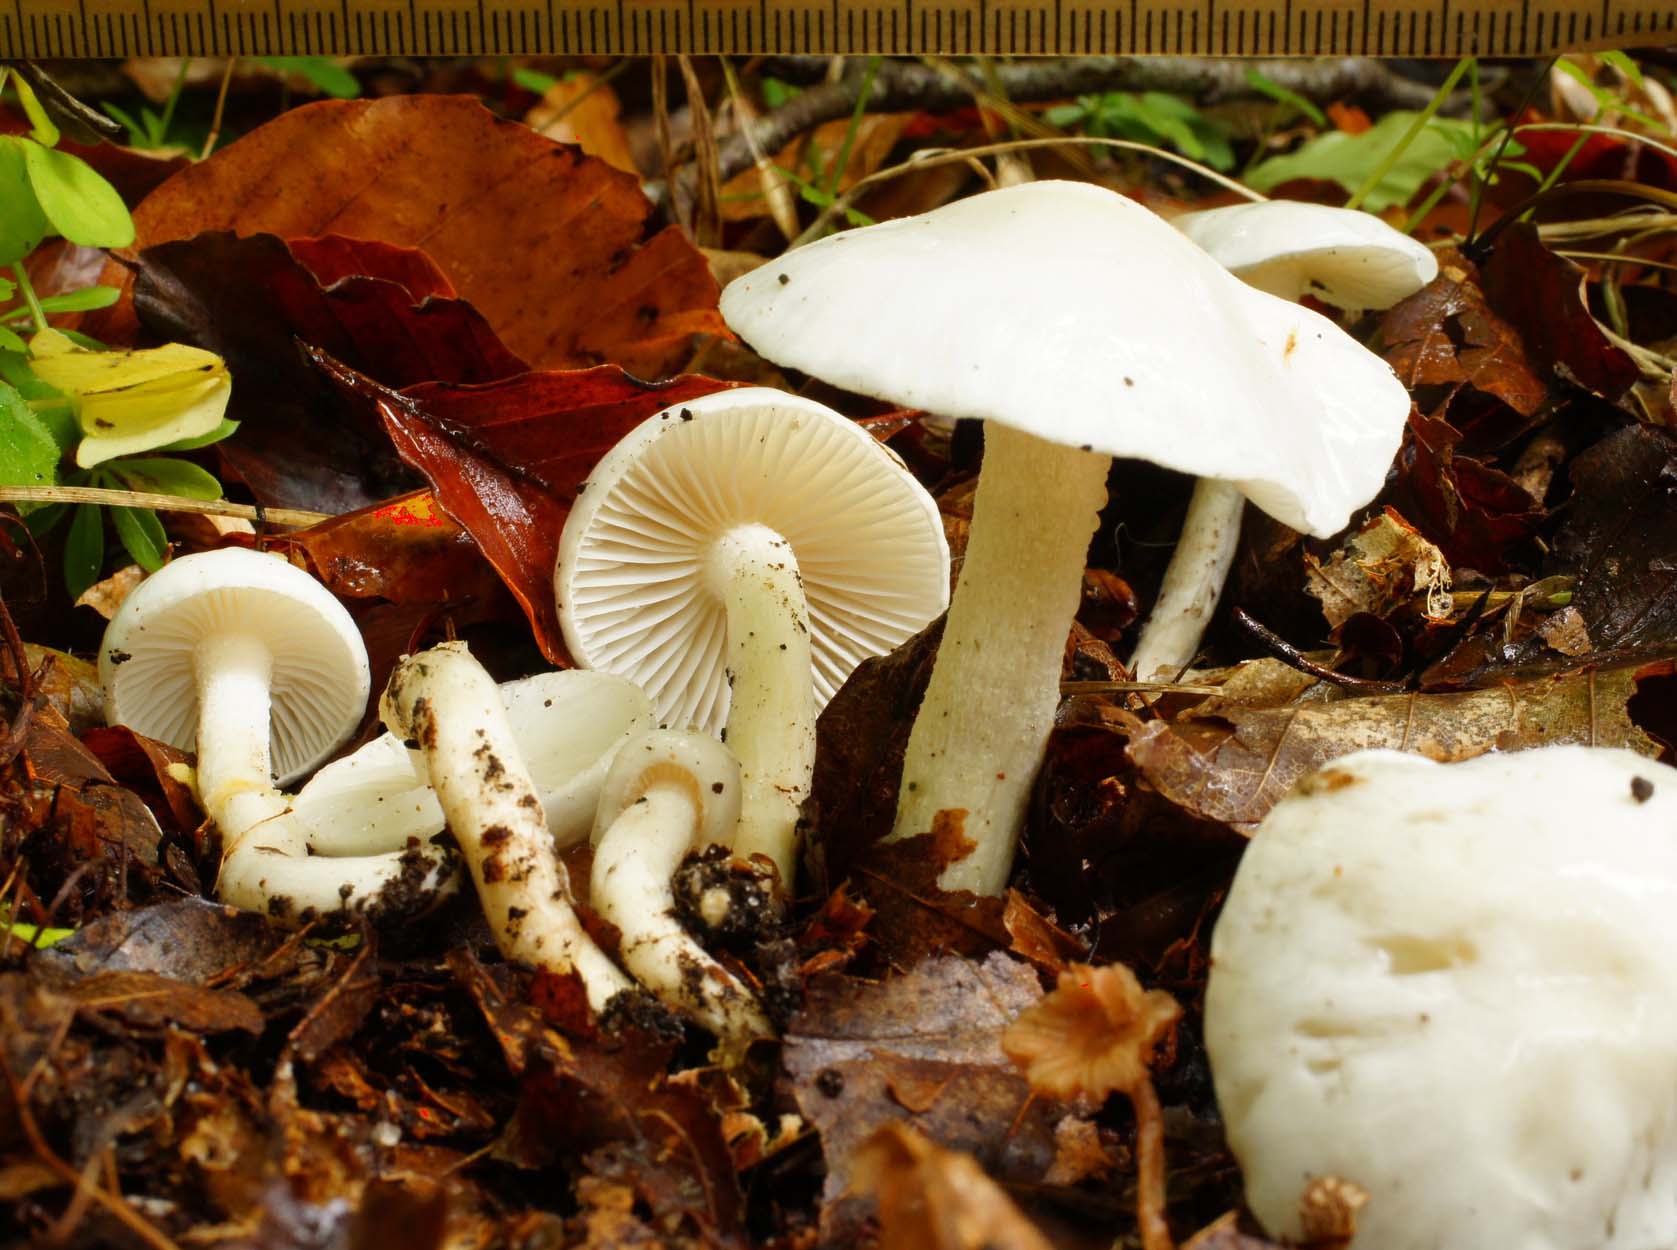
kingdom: Fungi
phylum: Basidiomycota
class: Agaricomycetes
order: Agaricales
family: Hygrophoraceae
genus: Hygrophorus
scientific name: Hygrophorus eburneus
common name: elfenbens-sneglehat
